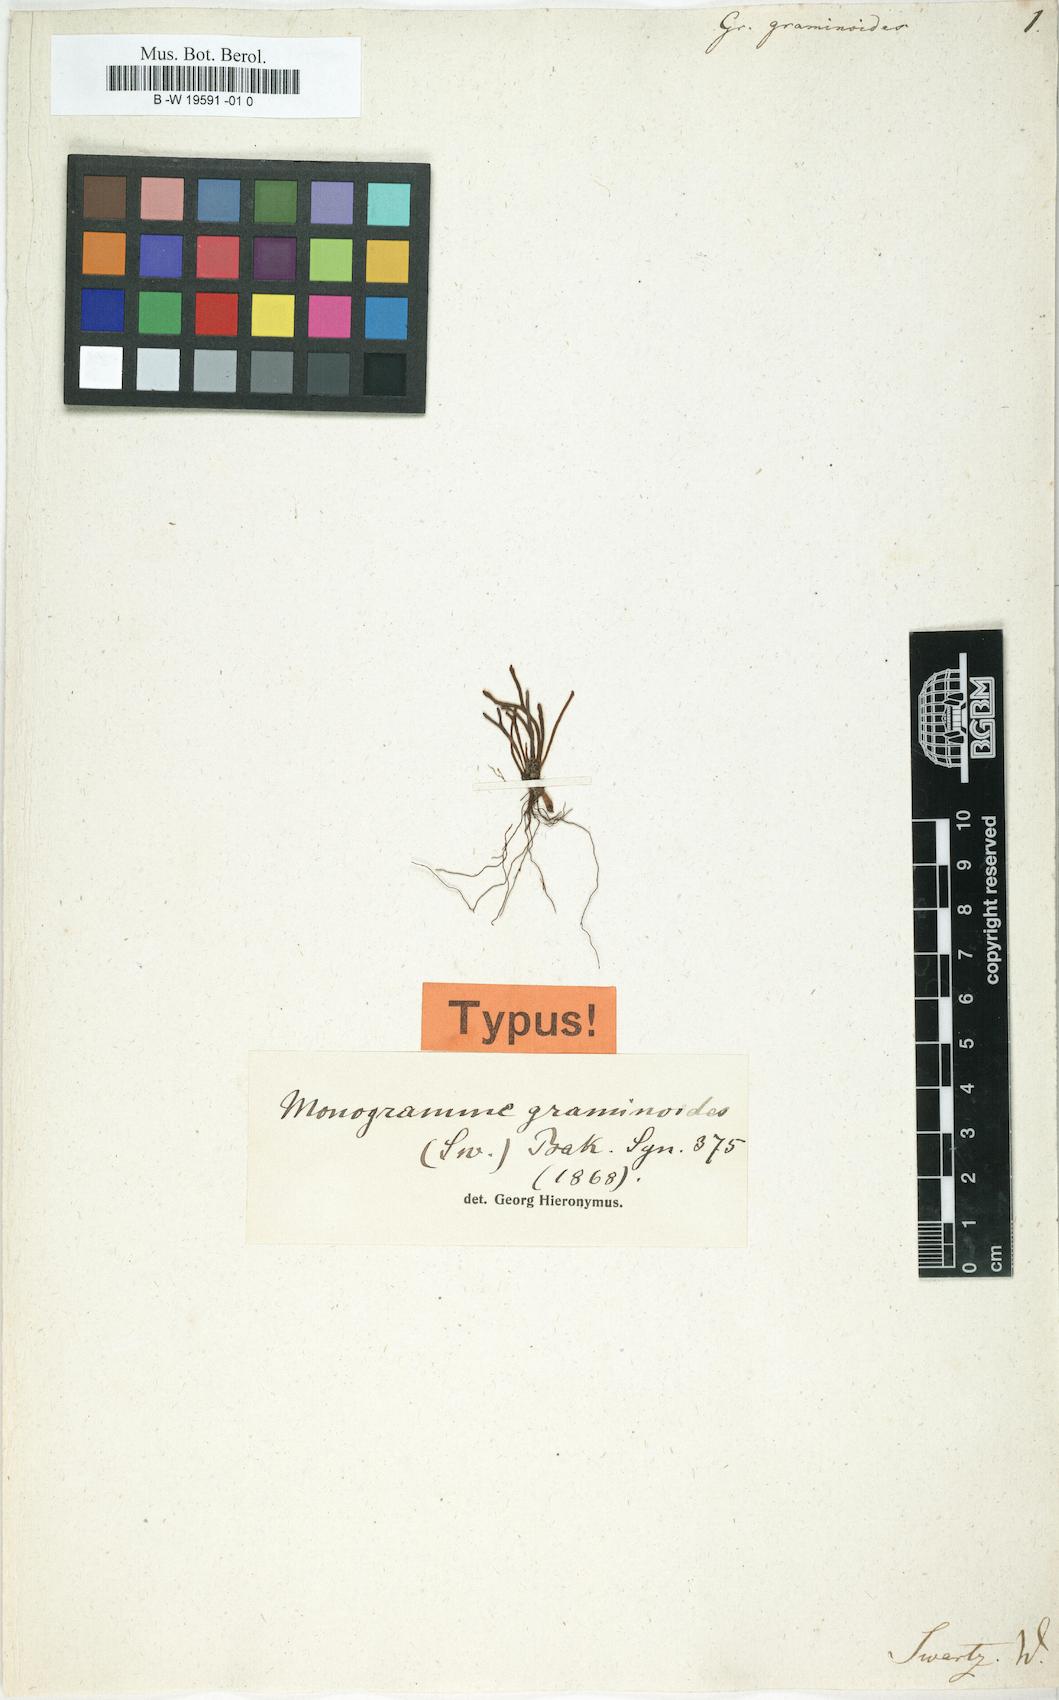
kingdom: Plantae
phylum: Tracheophyta
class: Polypodiopsida
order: Polypodiales
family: Polypodiaceae
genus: Cochlidium
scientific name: Cochlidium graminoides
